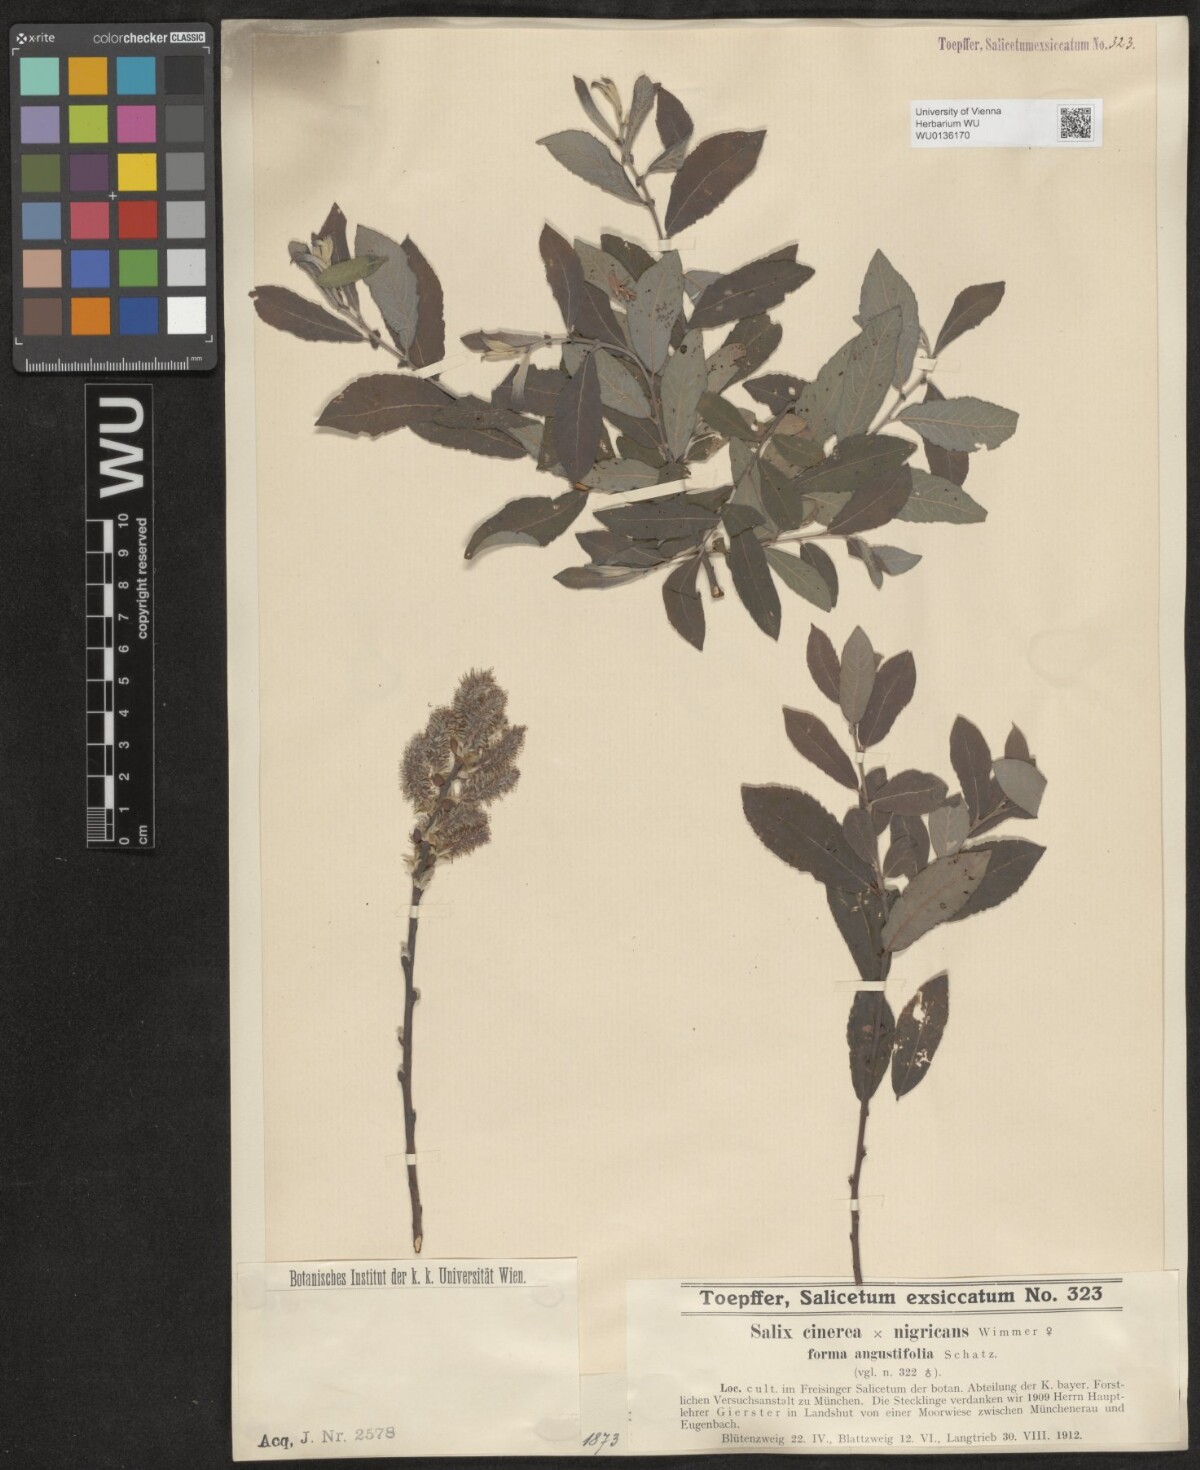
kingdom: Plantae
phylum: Tracheophyta
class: Magnoliopsida
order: Malpighiales
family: Salicaceae
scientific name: Salicaceae
